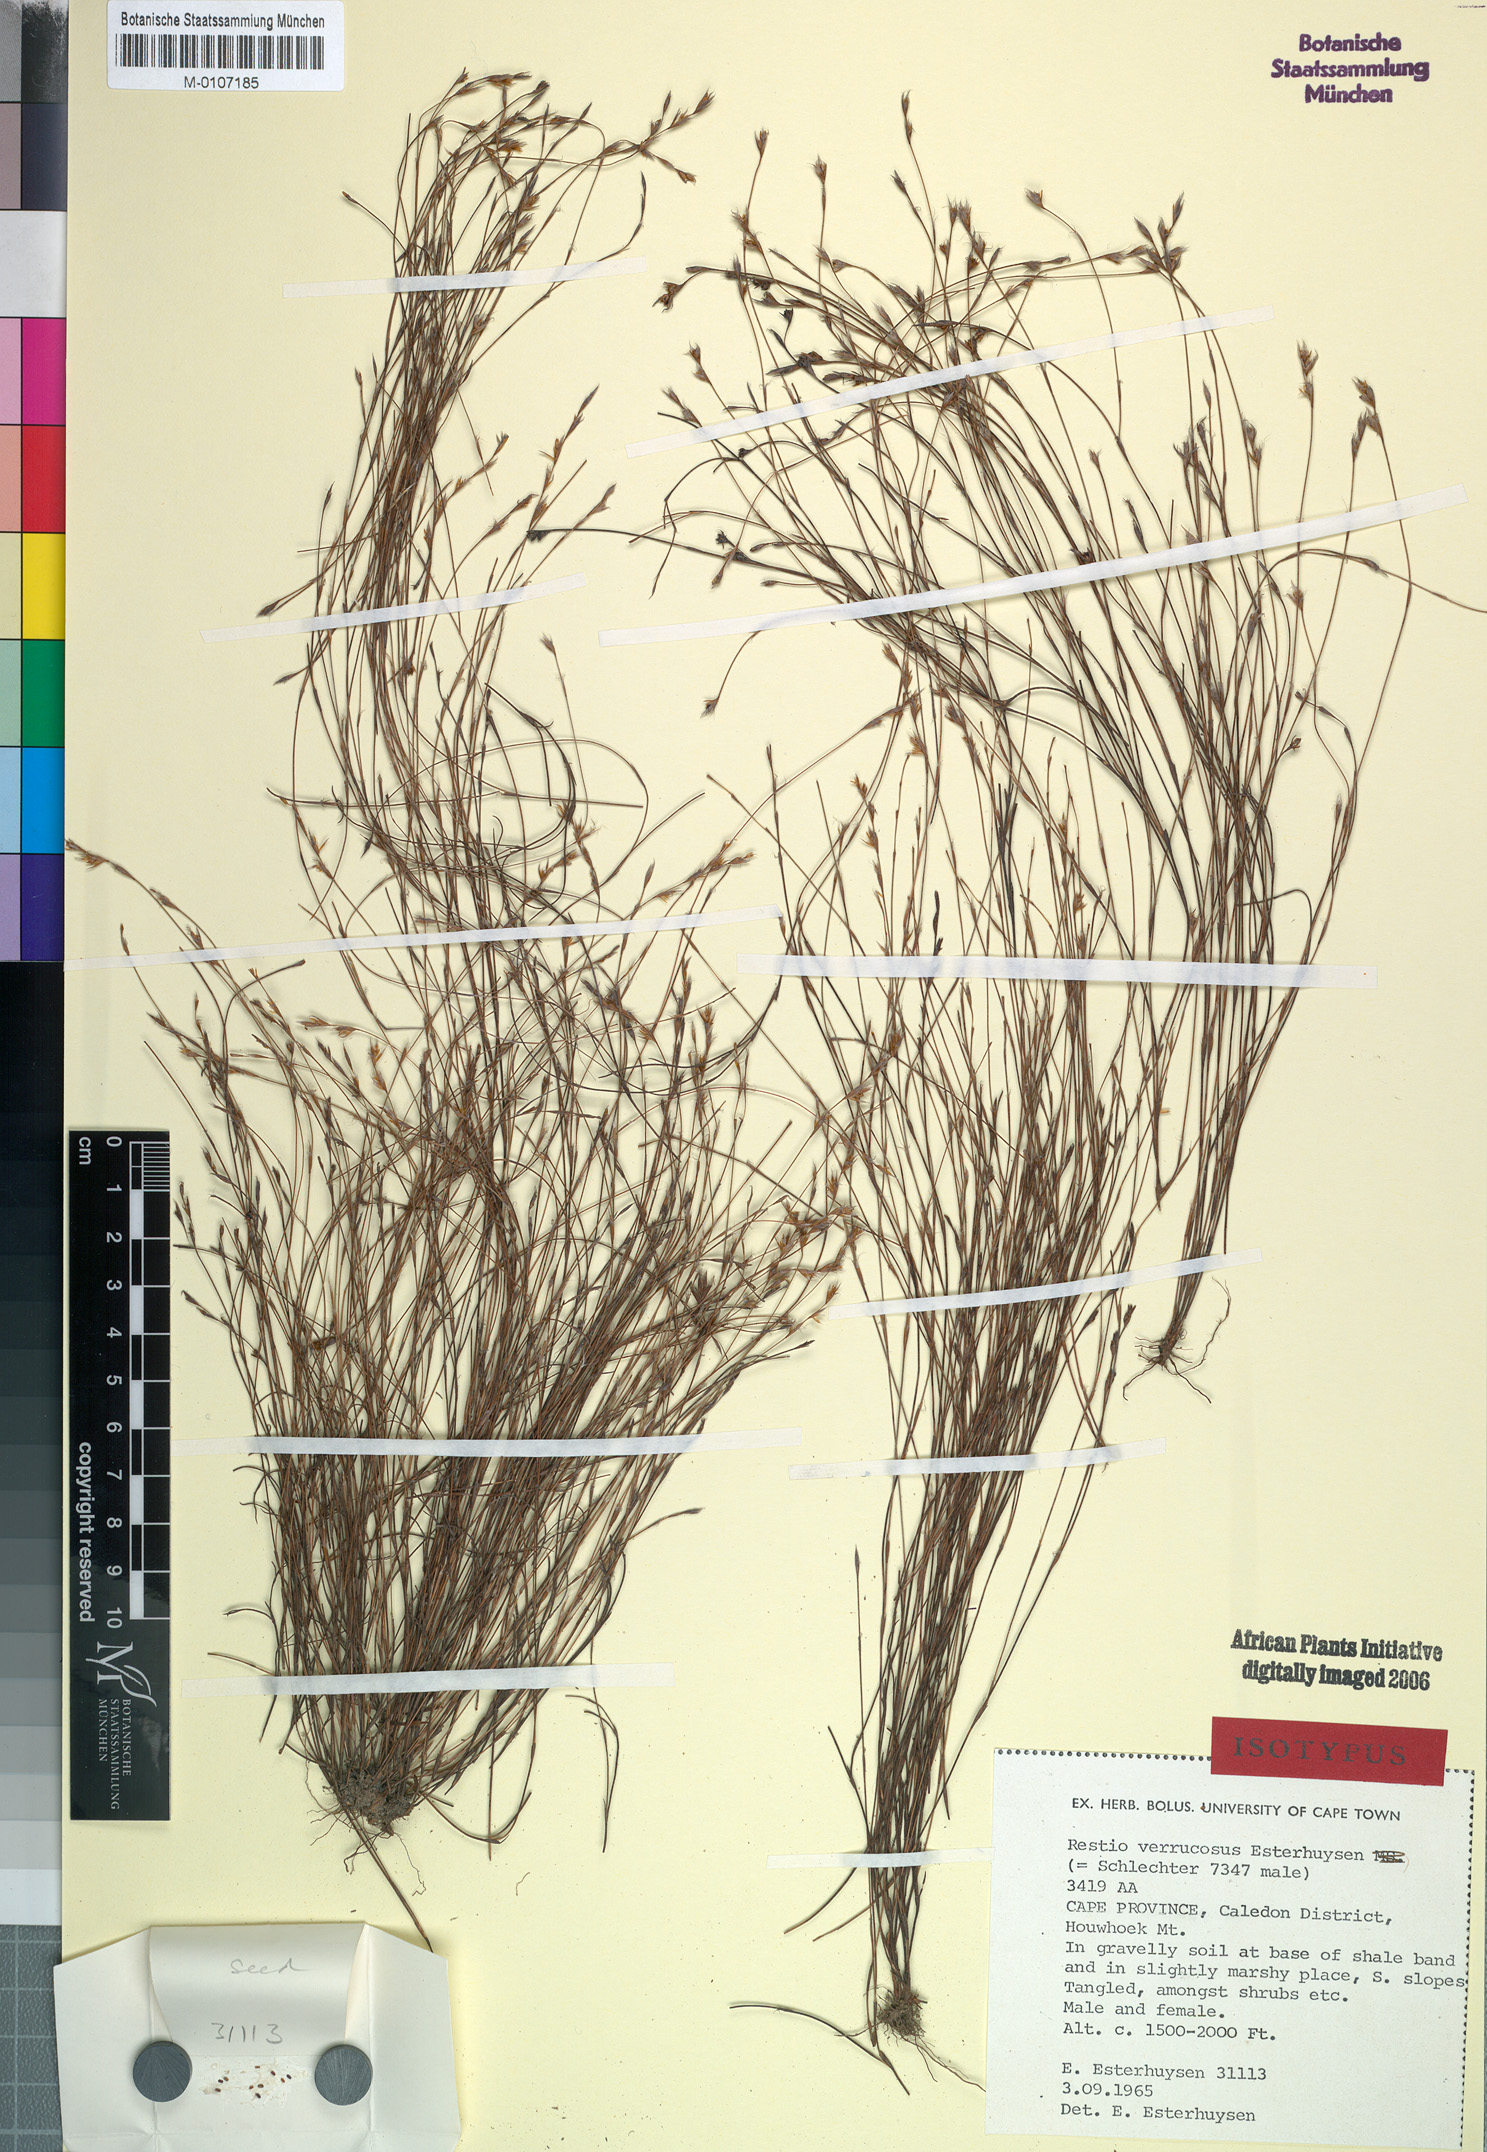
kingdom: Plantae
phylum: Tracheophyta
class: Liliopsida
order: Poales
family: Restionaceae
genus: Restio
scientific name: Restio verrucosus
